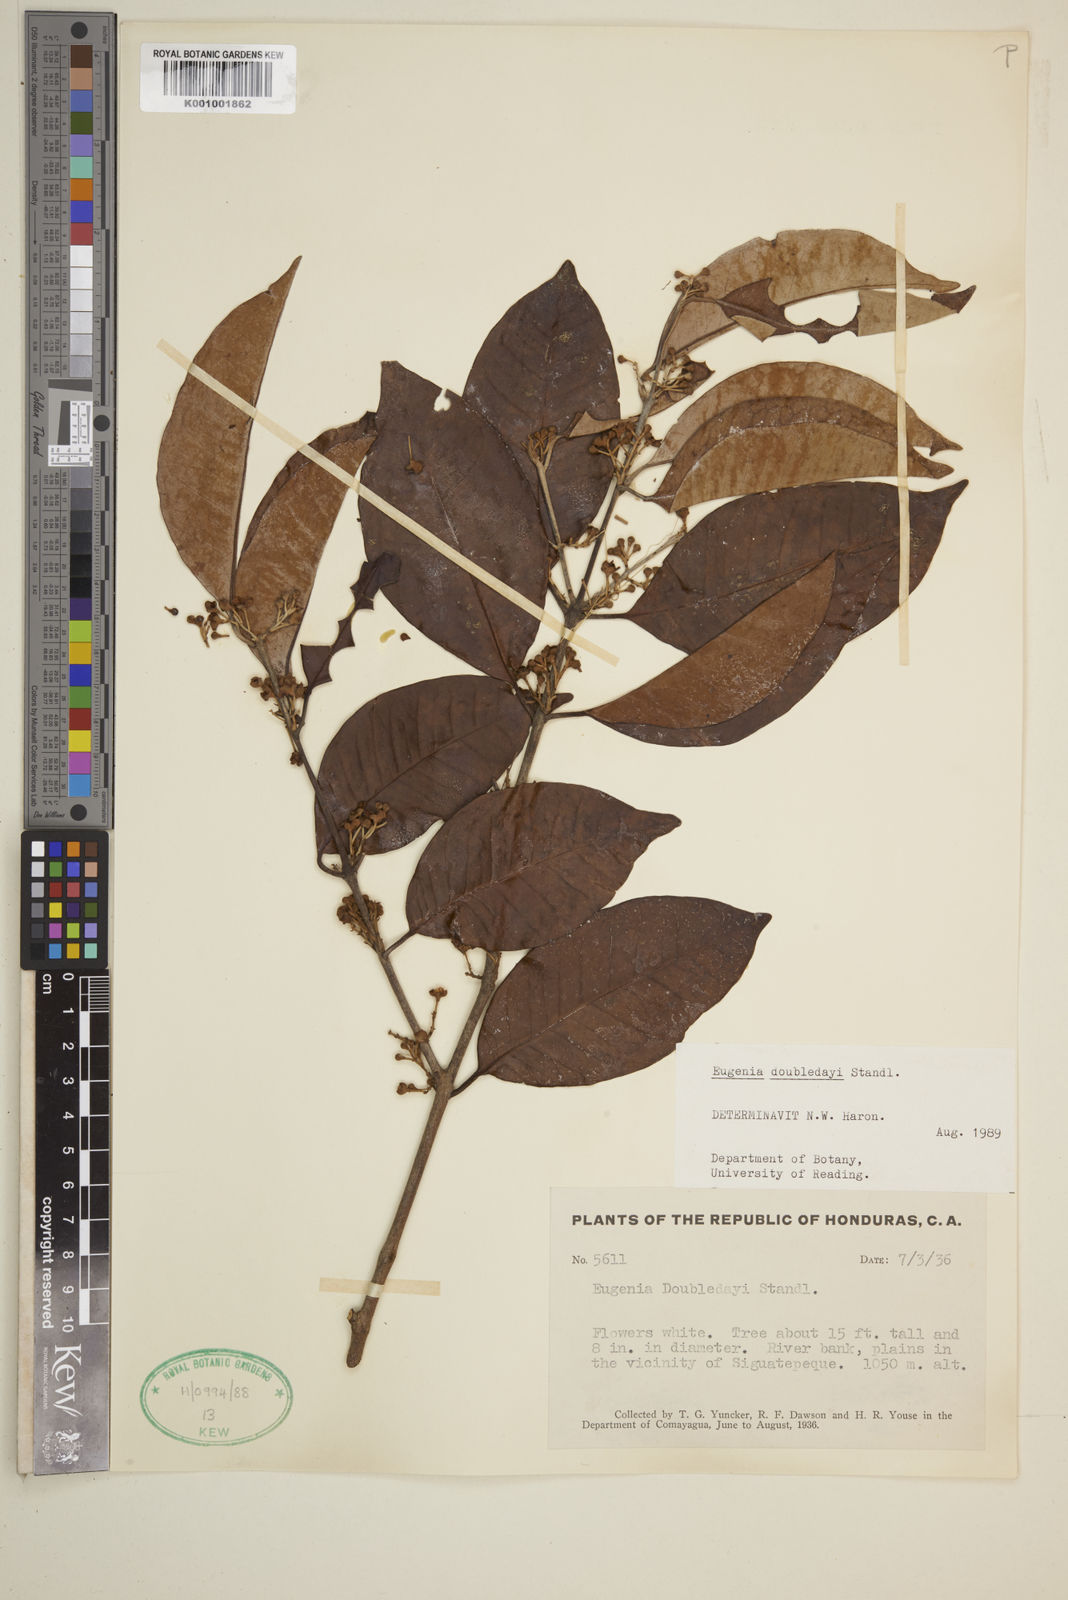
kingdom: Plantae
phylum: Tracheophyta
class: Magnoliopsida
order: Myrtales
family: Myrtaceae
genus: Eugenia
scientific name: Eugenia doubledayi
